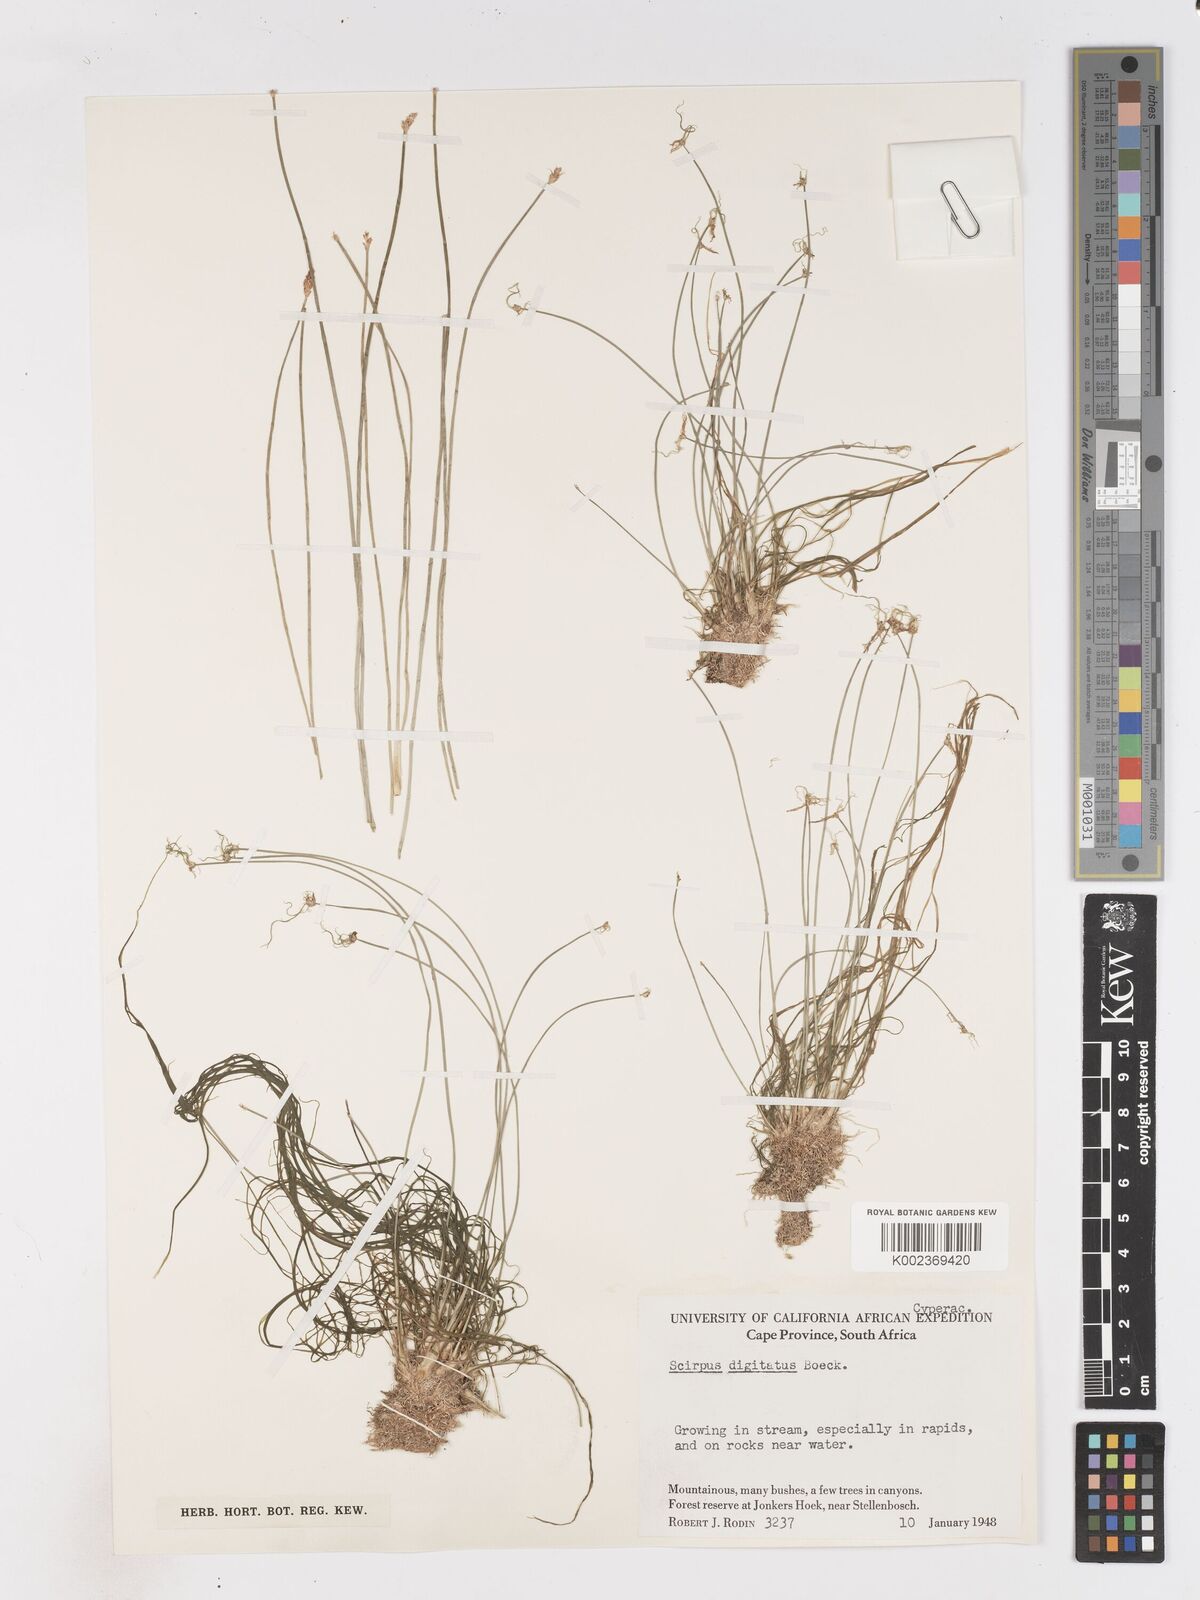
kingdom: Plantae
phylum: Tracheophyta
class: Liliopsida
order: Poales
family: Cyperaceae
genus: Isolepis
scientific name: Isolepis digitata
